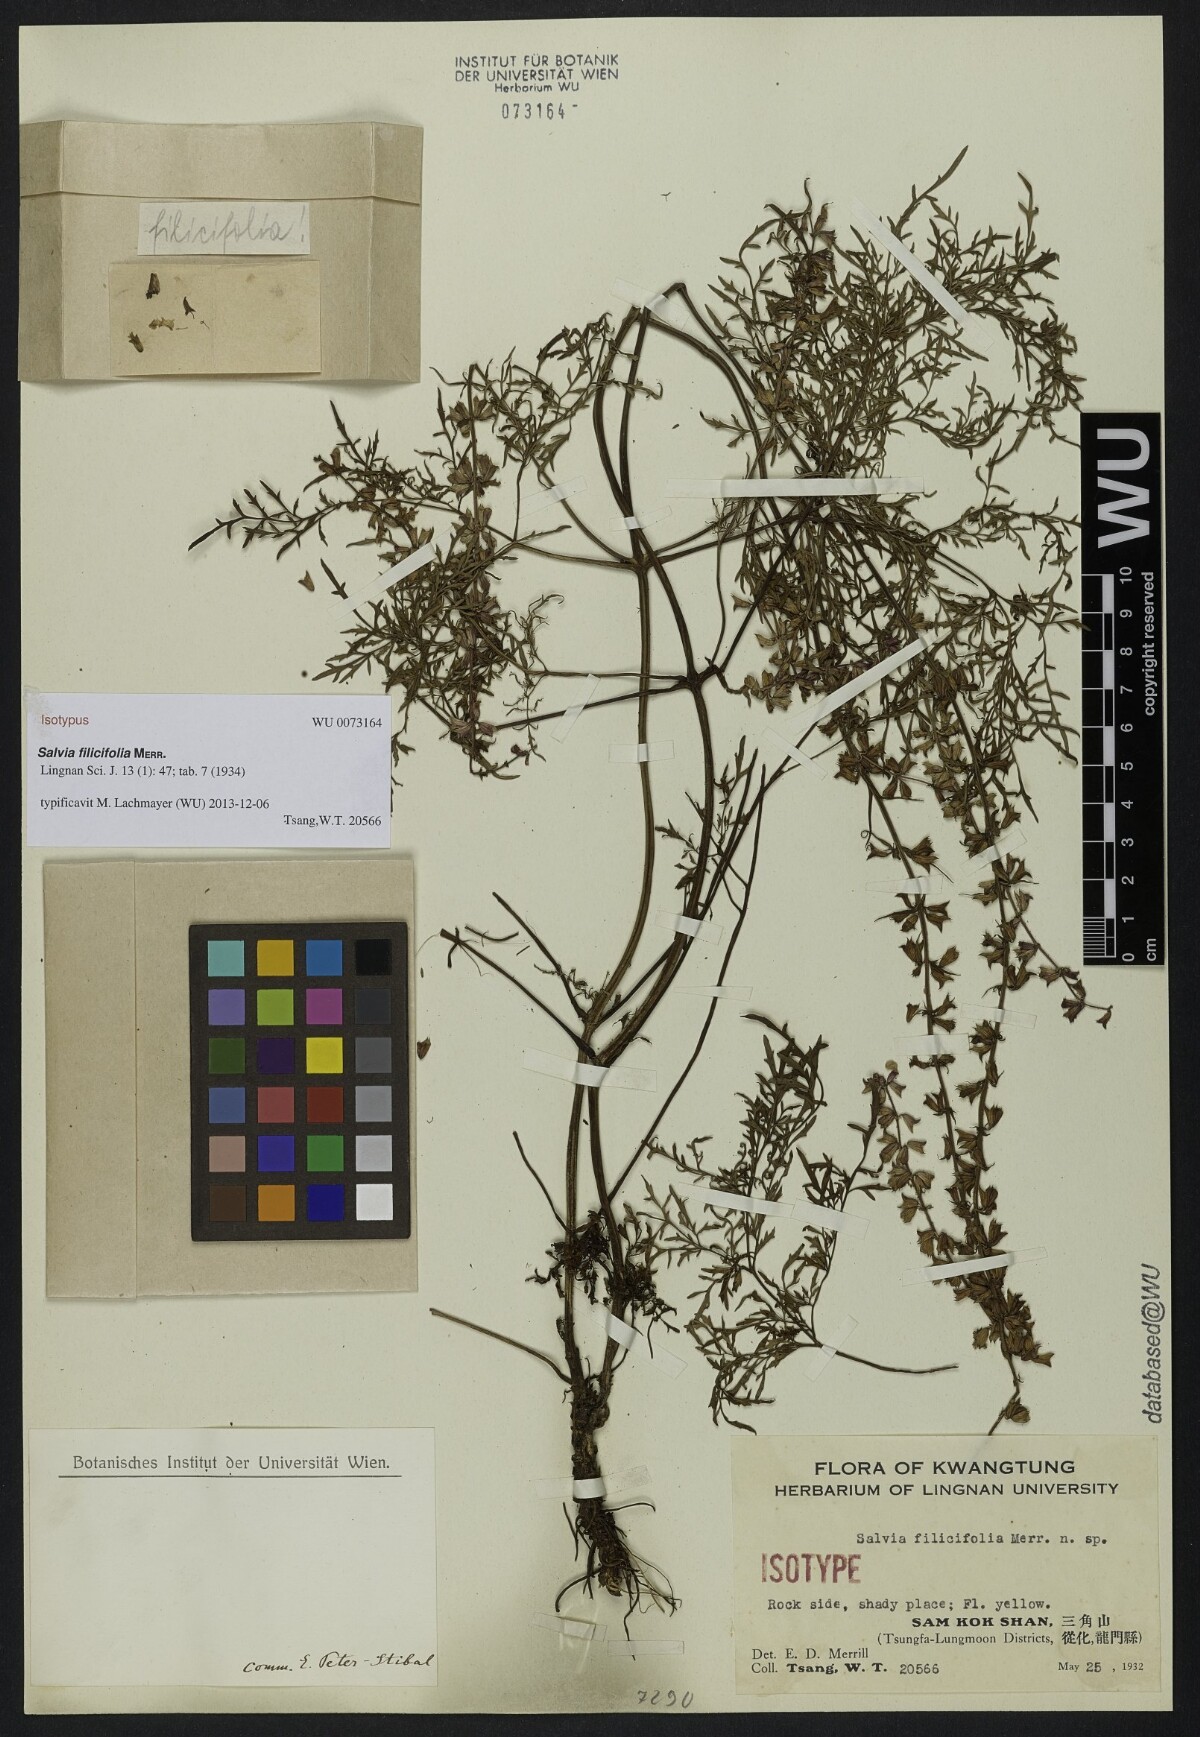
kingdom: Plantae
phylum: Tracheophyta
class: Magnoliopsida
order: Lamiales
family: Lamiaceae
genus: Salvia
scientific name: Salvia filicifolia
